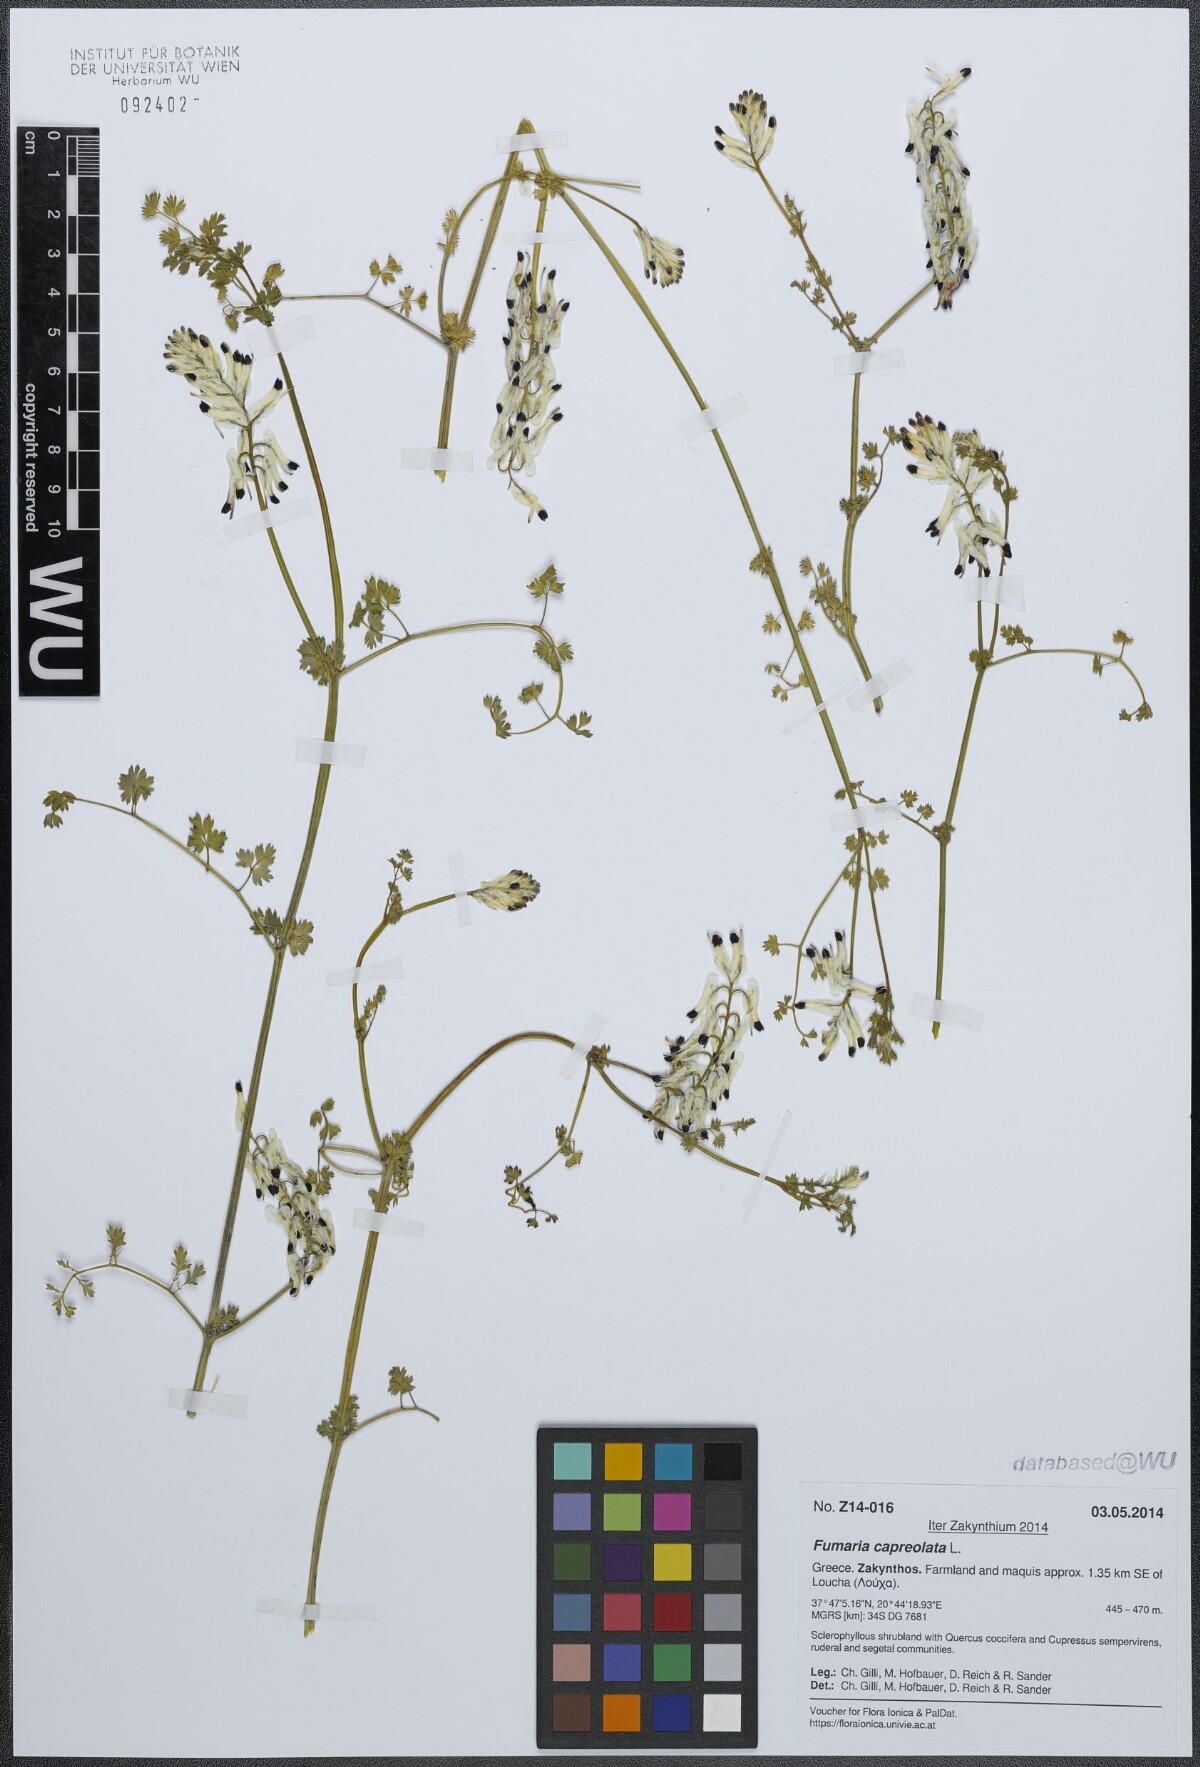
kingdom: Plantae
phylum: Tracheophyta
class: Magnoliopsida
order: Ranunculales
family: Papaveraceae
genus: Fumaria
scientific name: Fumaria capreolata
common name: White ramping-fumitory
